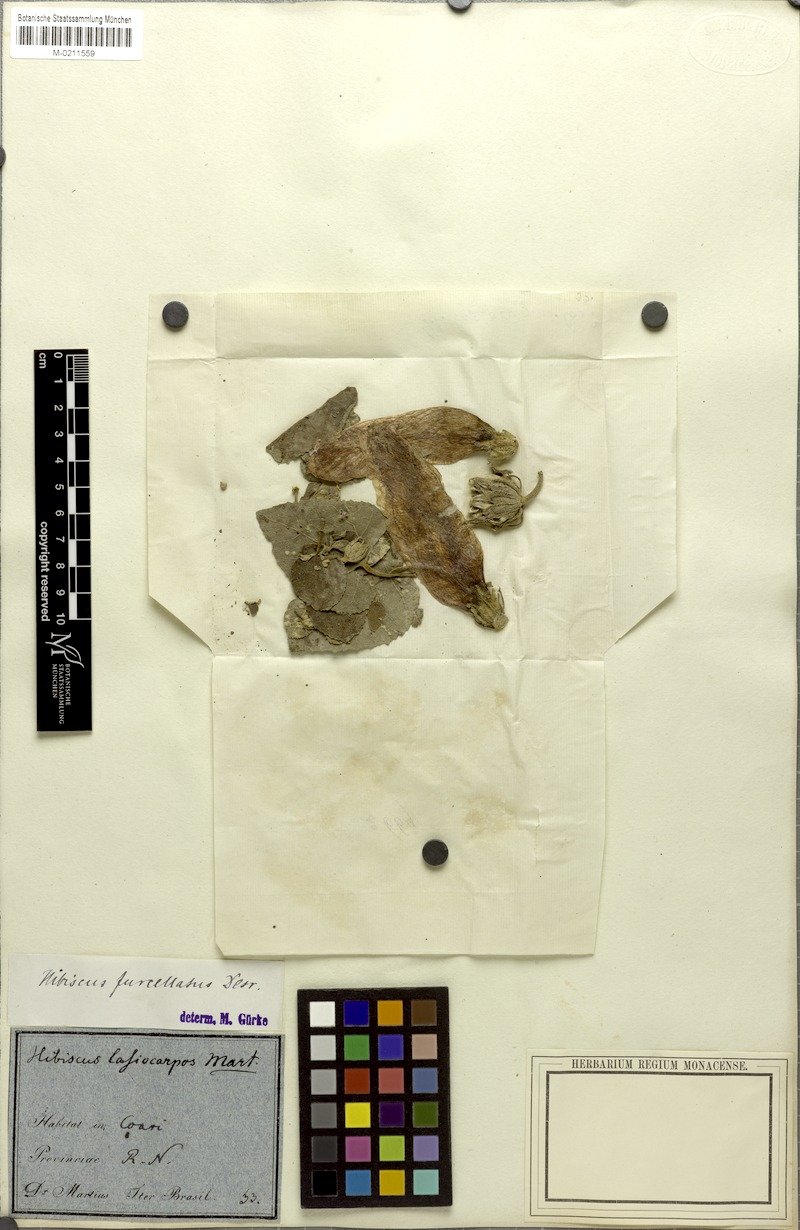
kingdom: Plantae
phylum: Tracheophyta
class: Magnoliopsida
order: Malvales
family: Malvaceae
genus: Hibiscus
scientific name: Hibiscus furcellatus
